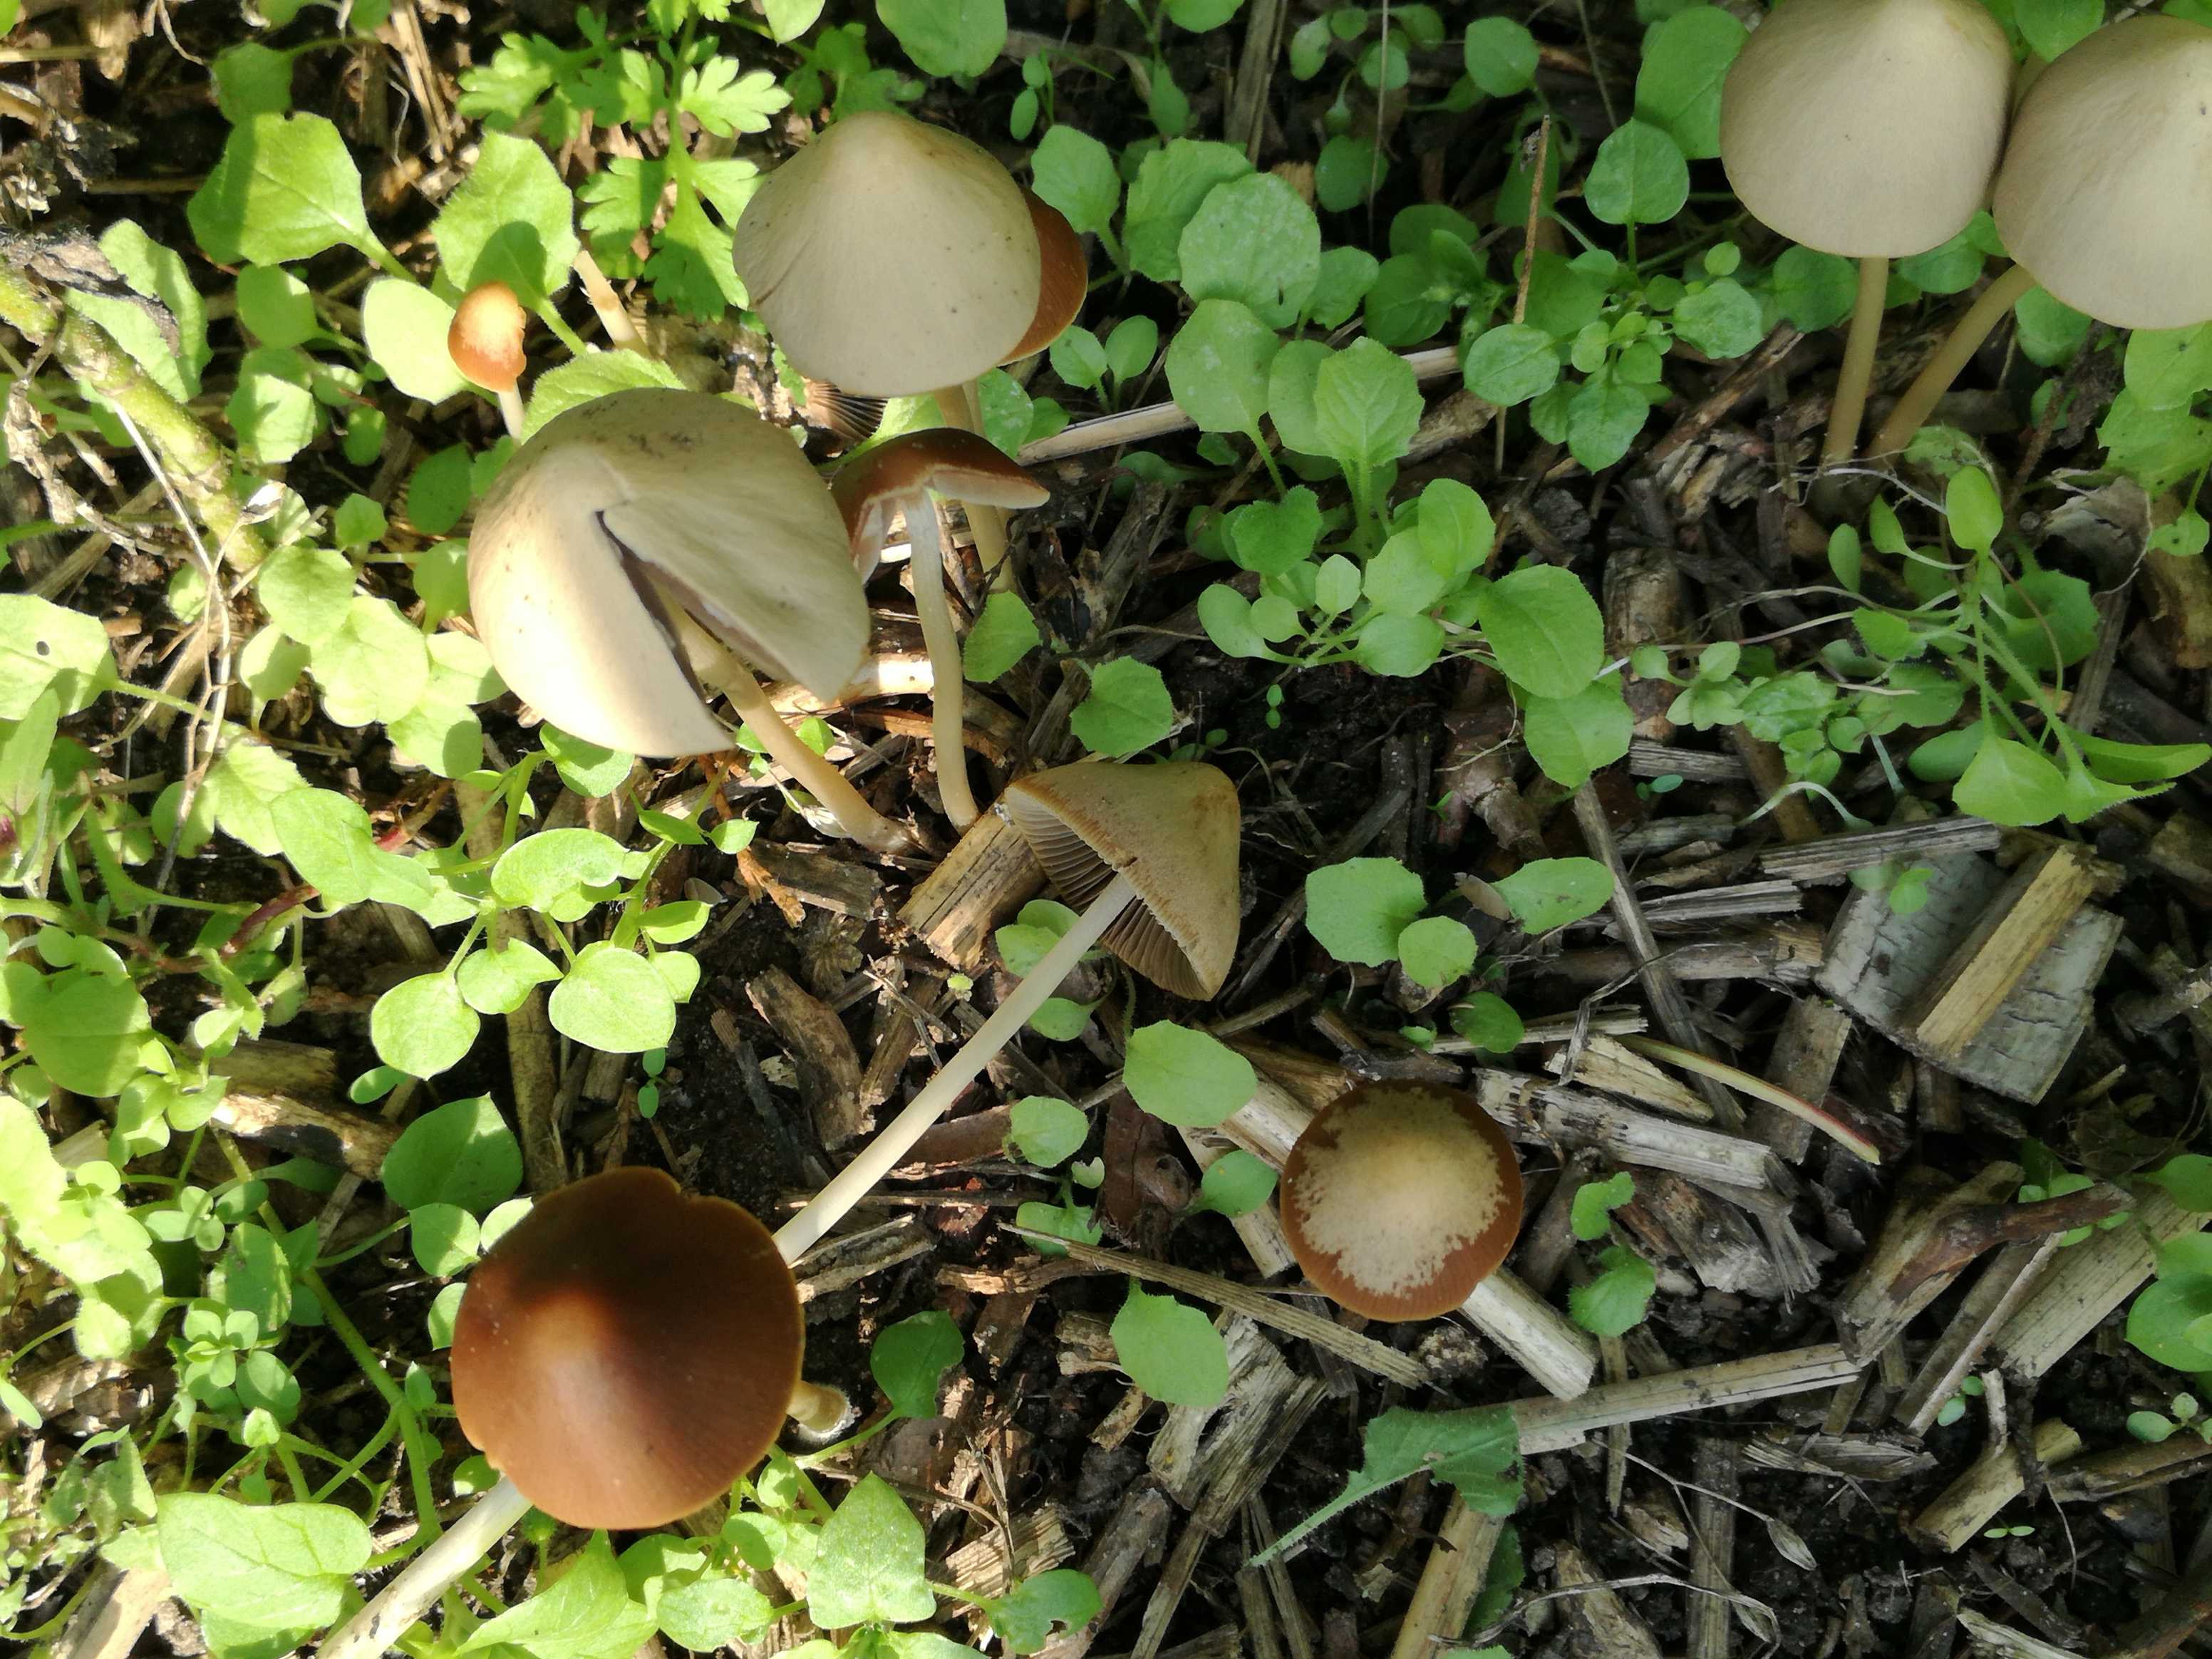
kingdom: Fungi
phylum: Basidiomycota
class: Agaricomycetes
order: Agaricales
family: Psathyrellaceae
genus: Parasola
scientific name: Parasola conopilea
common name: kegle-hjulhat
